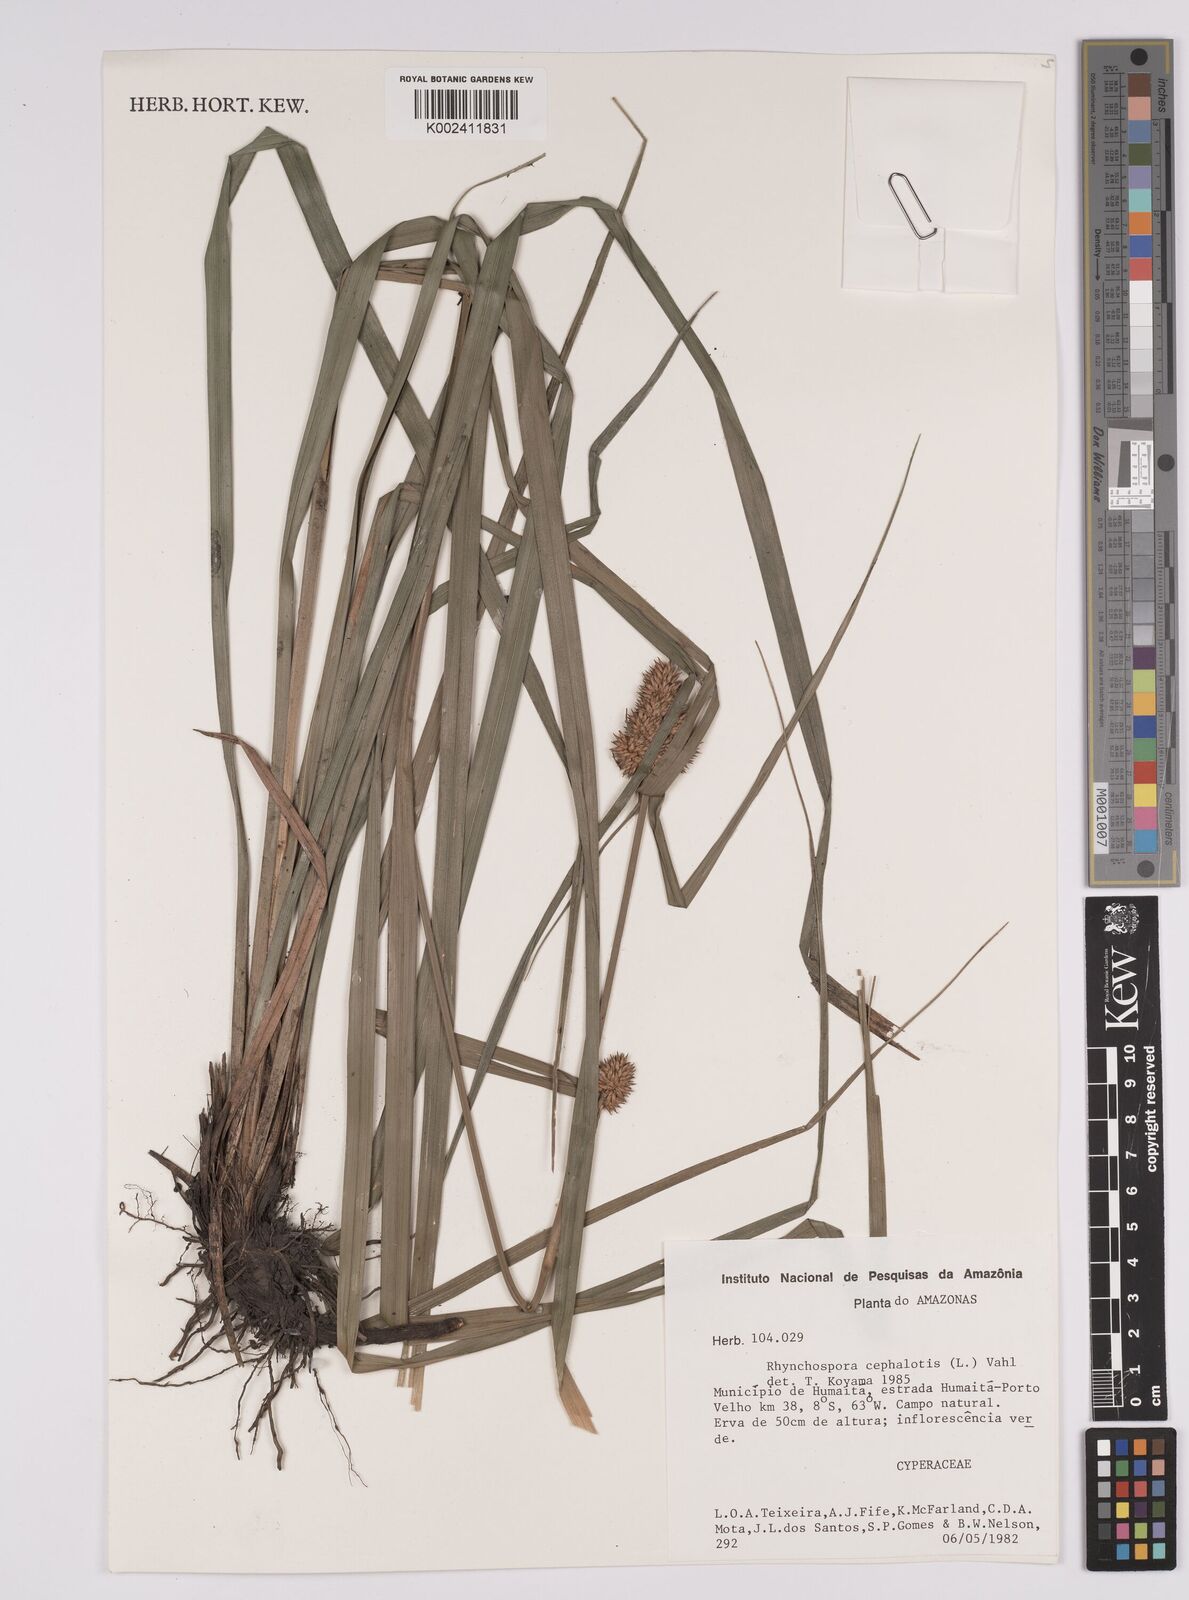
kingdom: Plantae
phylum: Tracheophyta
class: Liliopsida
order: Poales
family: Cyperaceae
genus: Rhynchospora
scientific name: Rhynchospora cephalotes
